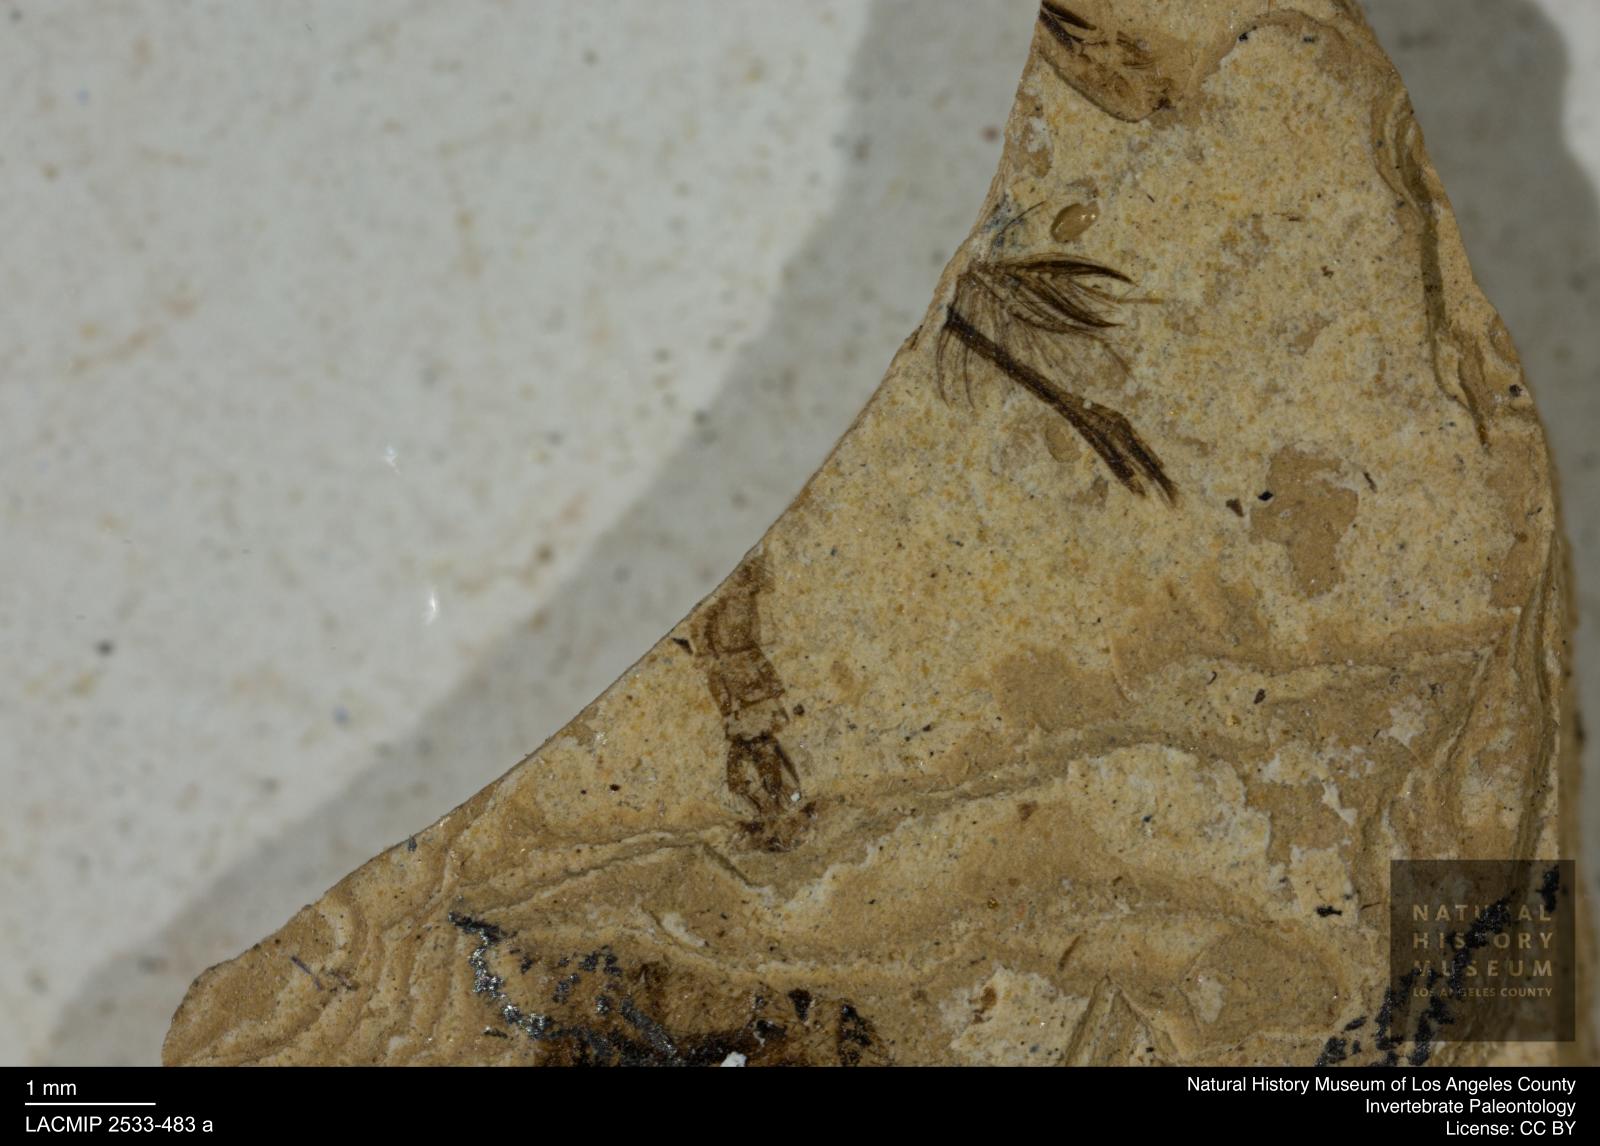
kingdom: Animalia
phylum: Arthropoda
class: Insecta
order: Diptera
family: Culicidae
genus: Anopheles
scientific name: Anopheles rottensis
